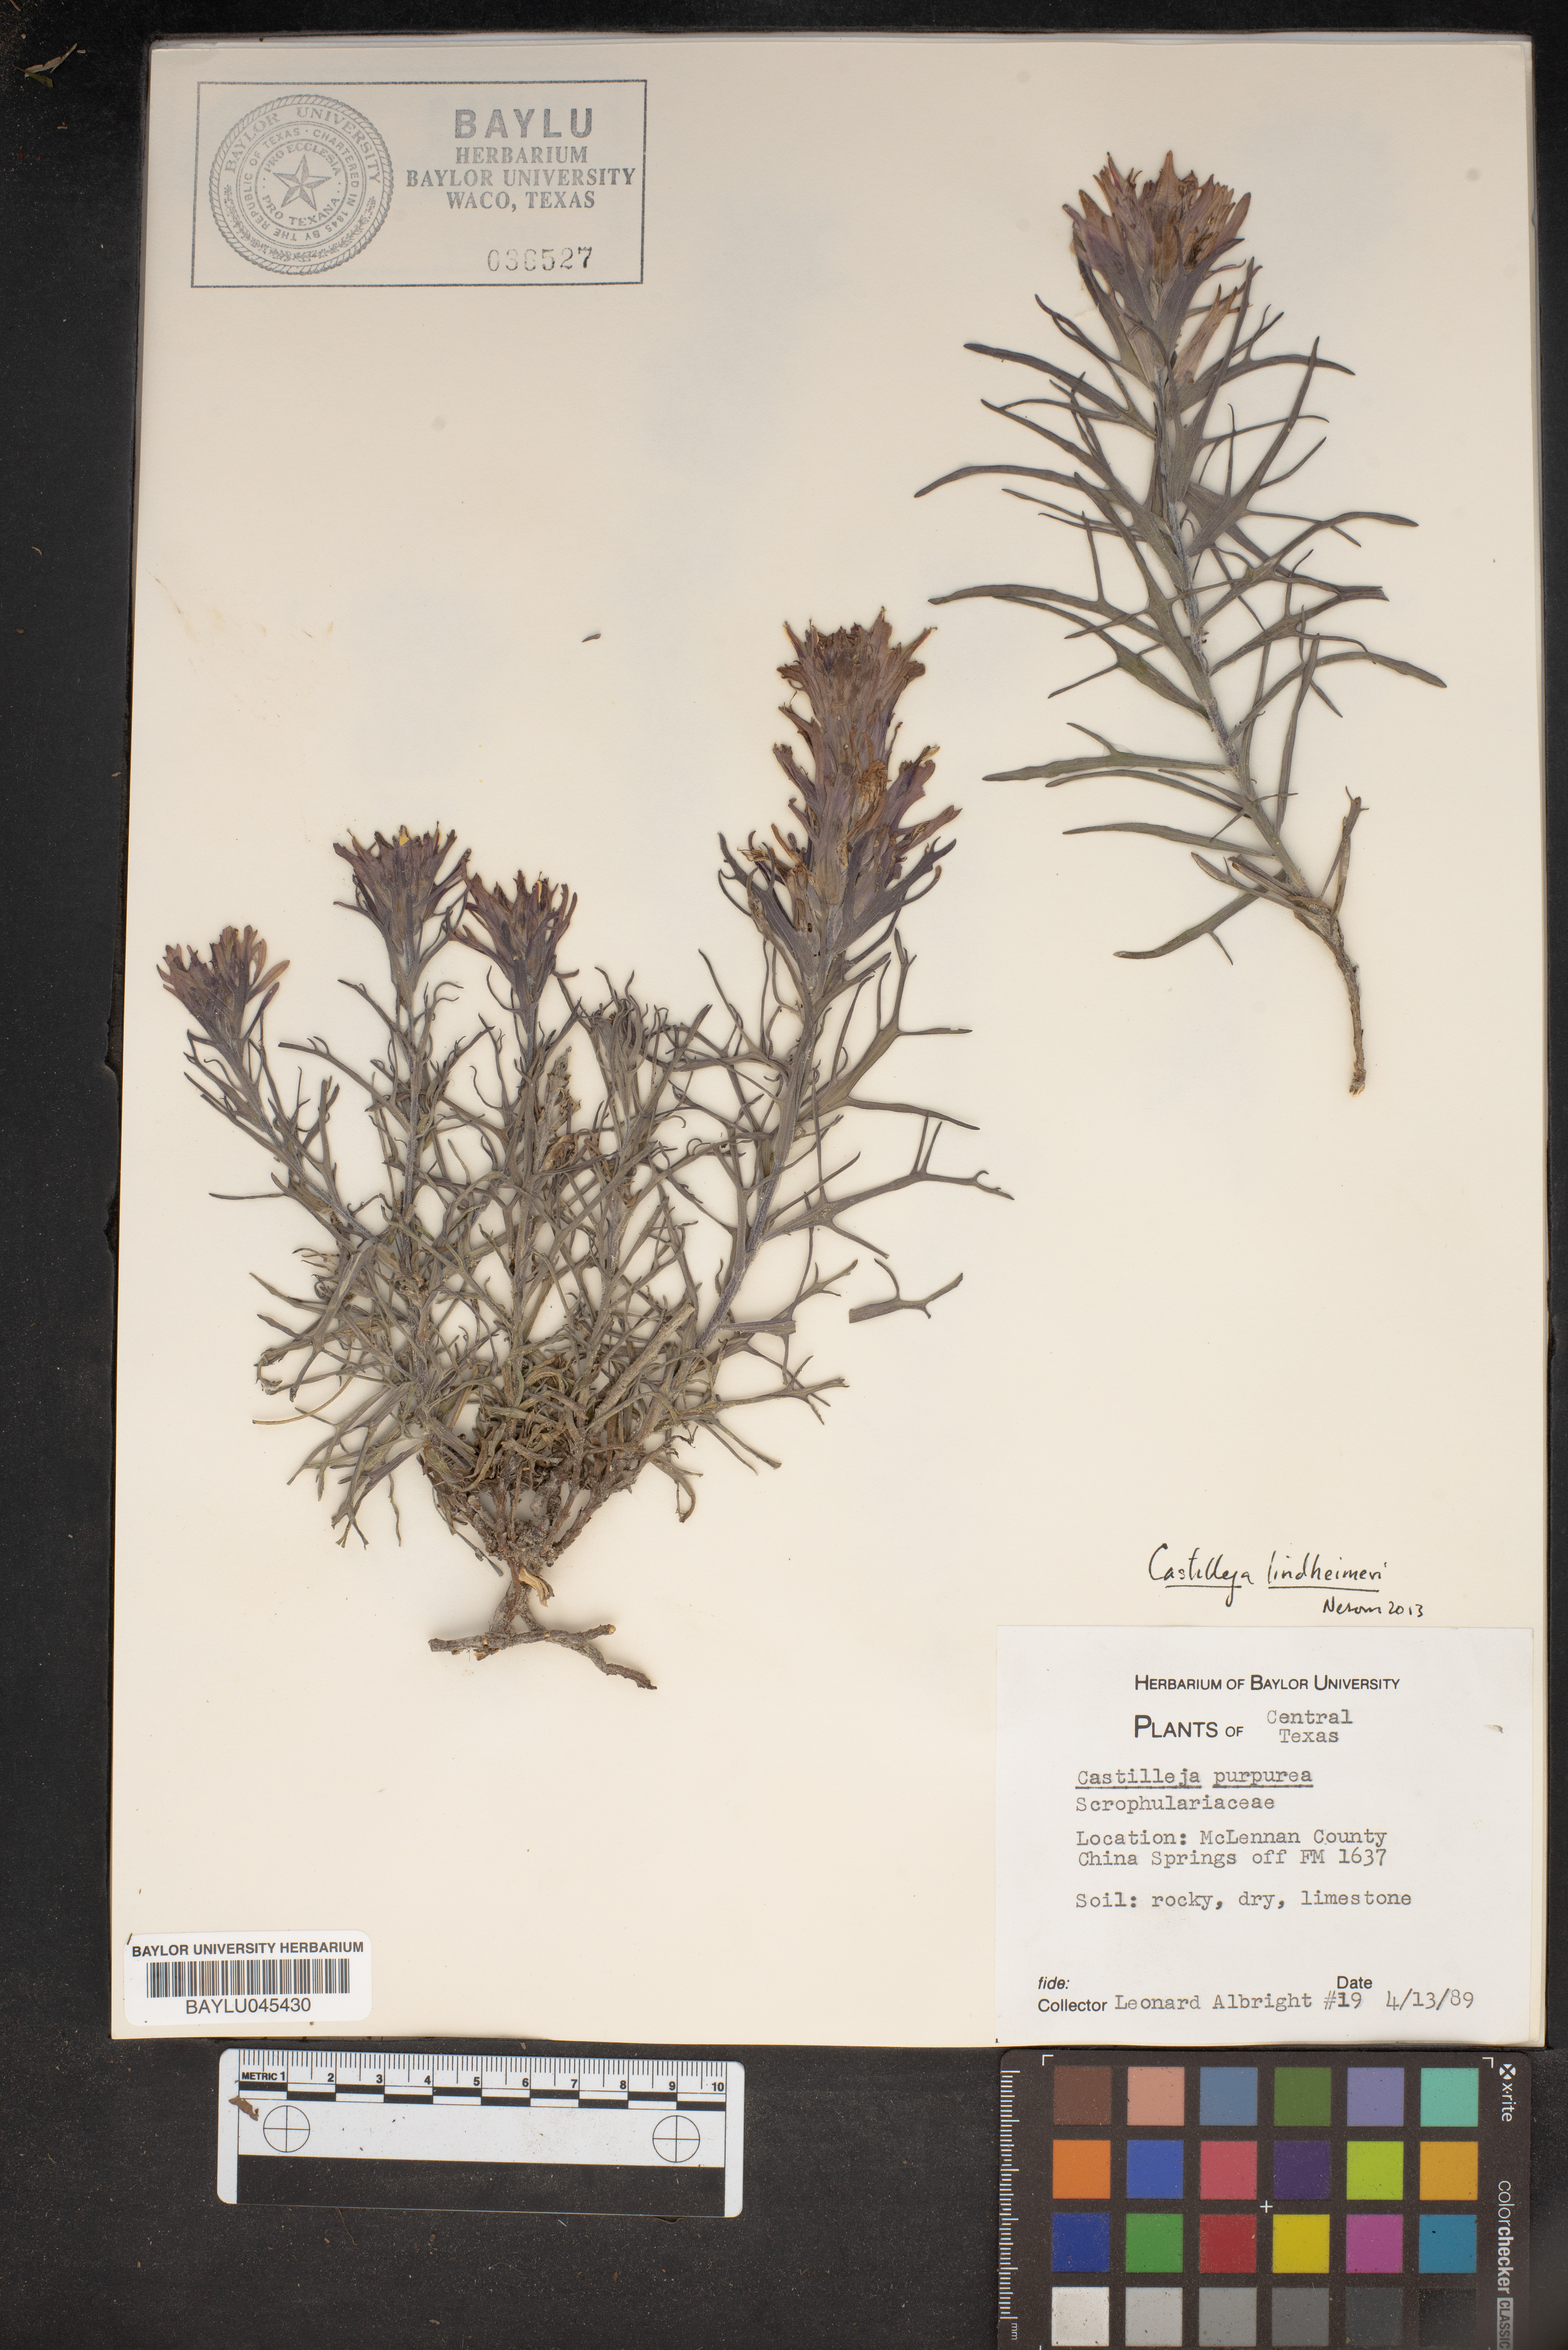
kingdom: Plantae
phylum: Tracheophyta
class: Magnoliopsida
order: Lamiales
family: Orobanchaceae
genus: Castilleja
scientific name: Castilleja purpurea
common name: Plains paintbrush
